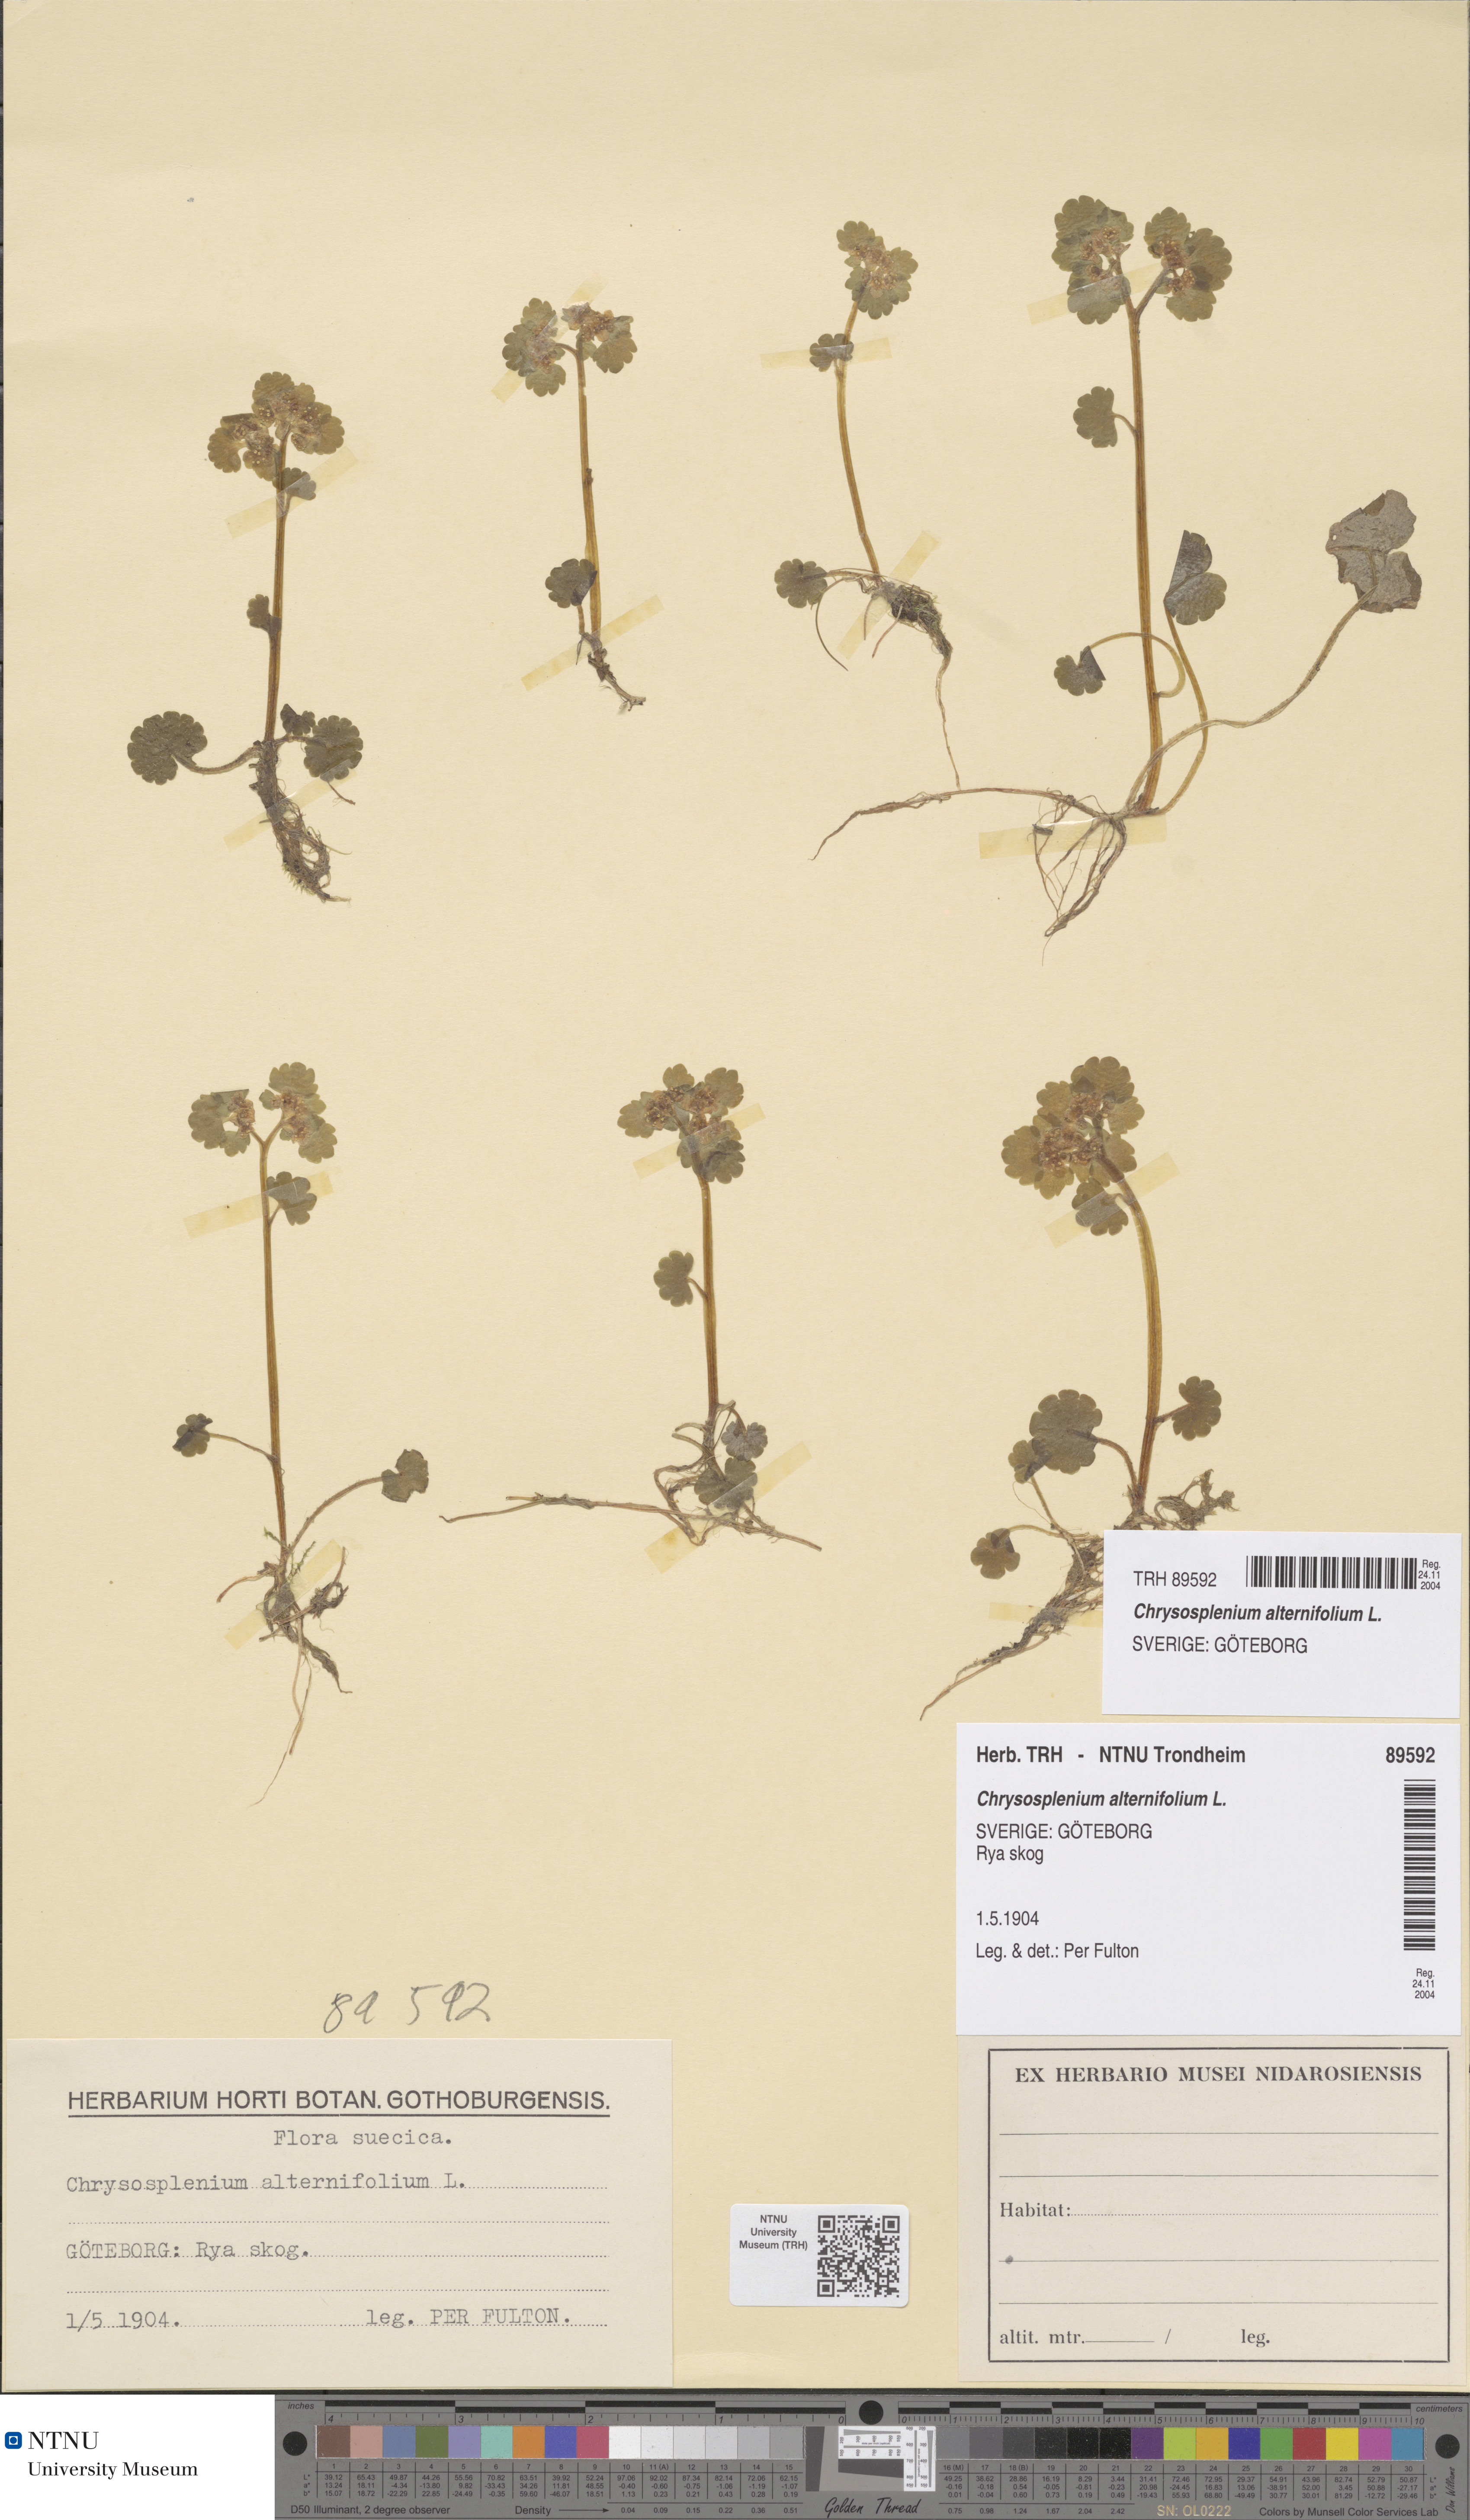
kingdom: Plantae
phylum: Tracheophyta
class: Magnoliopsida
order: Saxifragales
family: Saxifragaceae
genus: Chrysosplenium
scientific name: Chrysosplenium alternifolium
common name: Alternate-leaved golden-saxifrage
